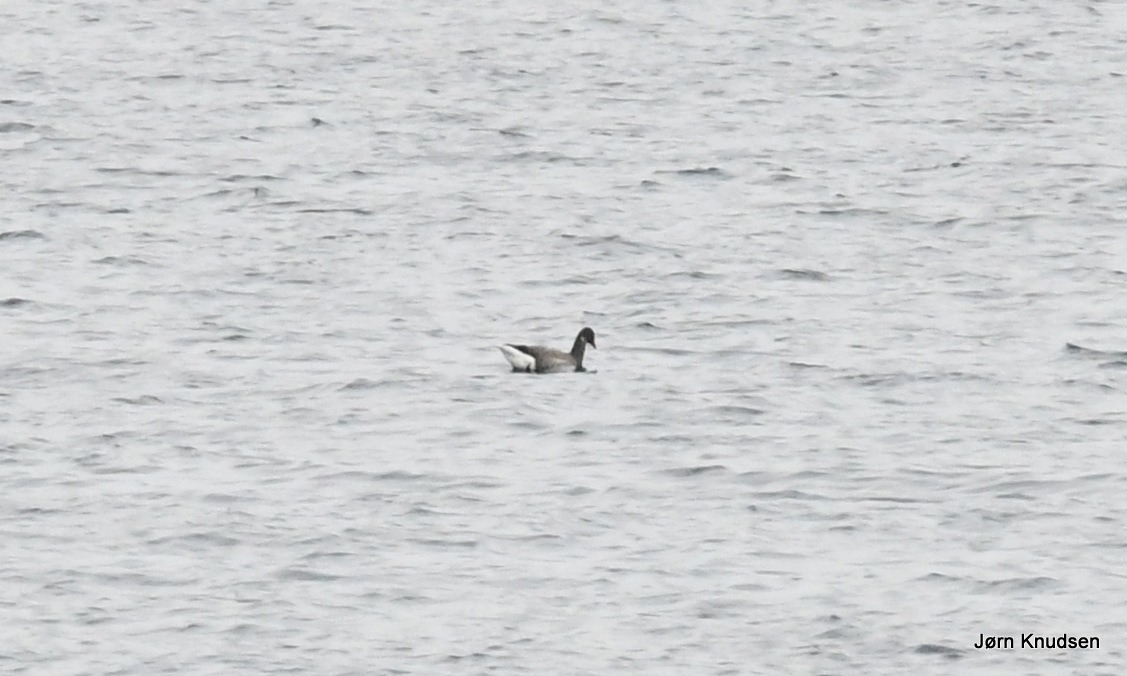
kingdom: Animalia
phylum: Chordata
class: Aves
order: Anseriformes
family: Anatidae
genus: Branta
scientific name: Branta bernicla
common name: Knortegås
